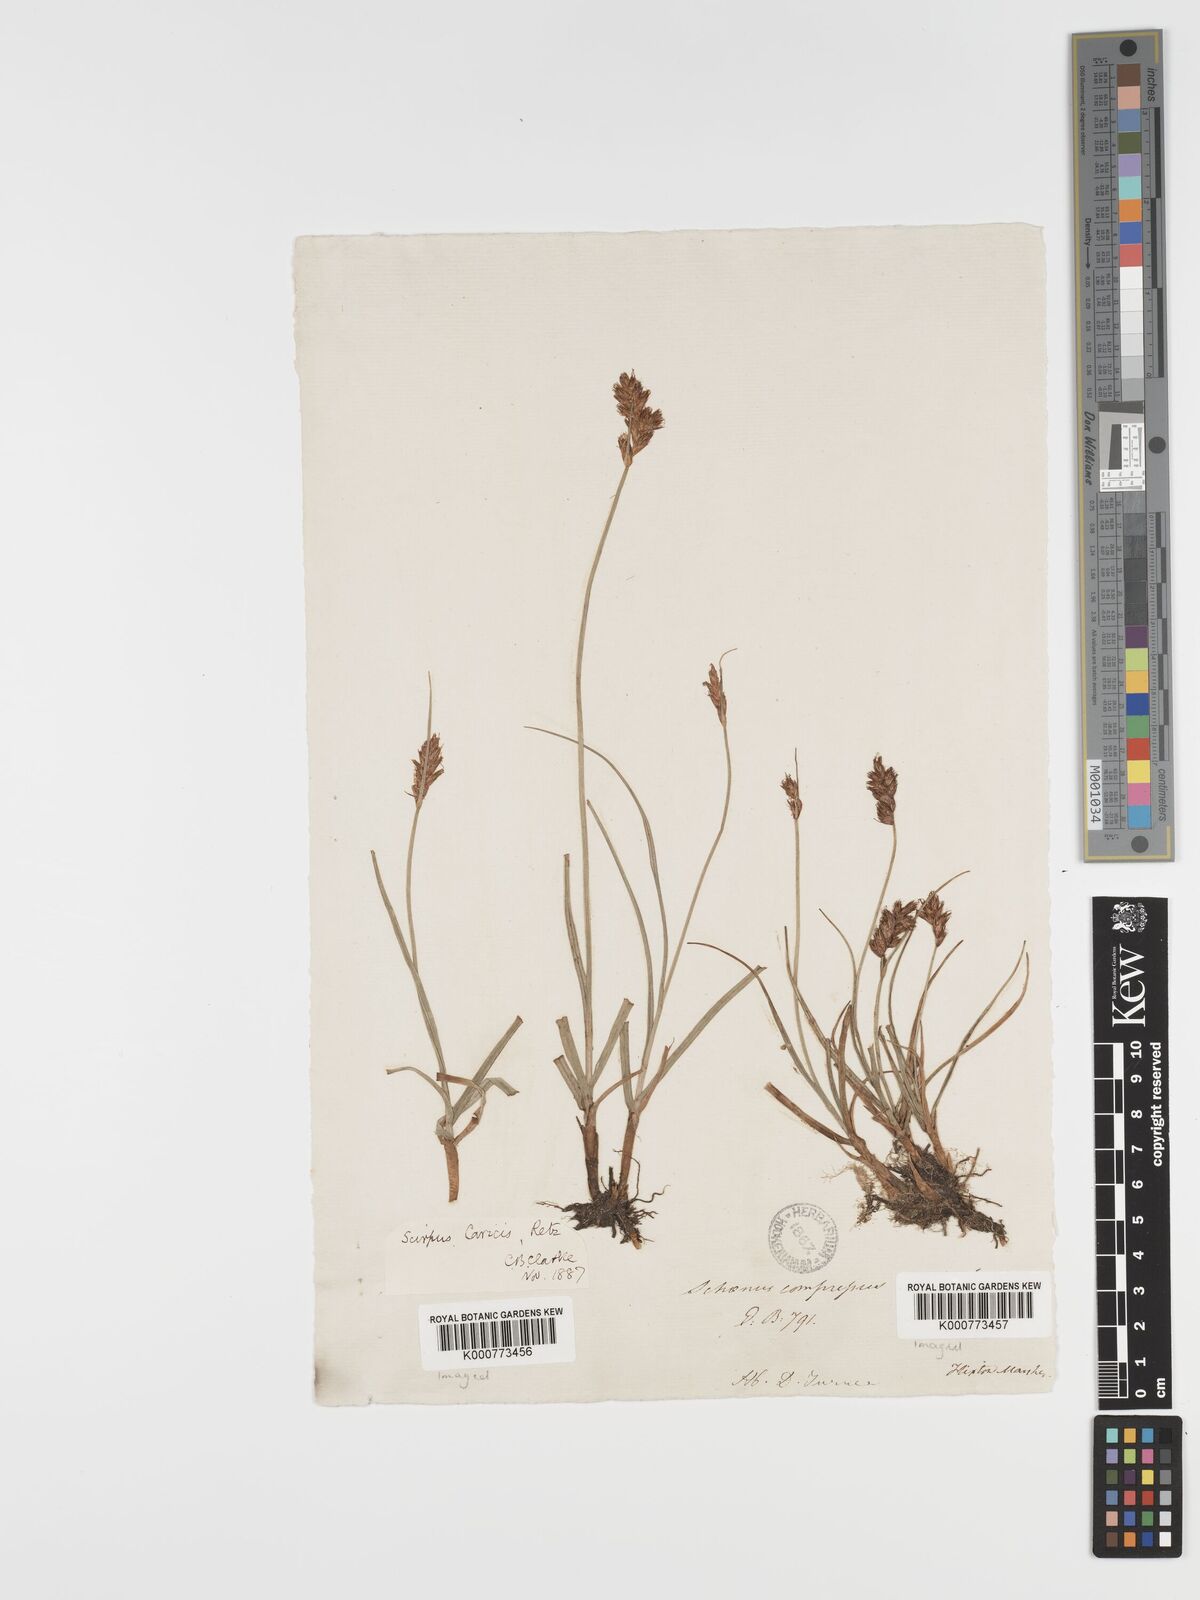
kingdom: Plantae
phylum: Tracheophyta
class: Liliopsida
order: Poales
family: Cyperaceae
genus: Blysmus
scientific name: Blysmus compressus
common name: Flat-sedge
